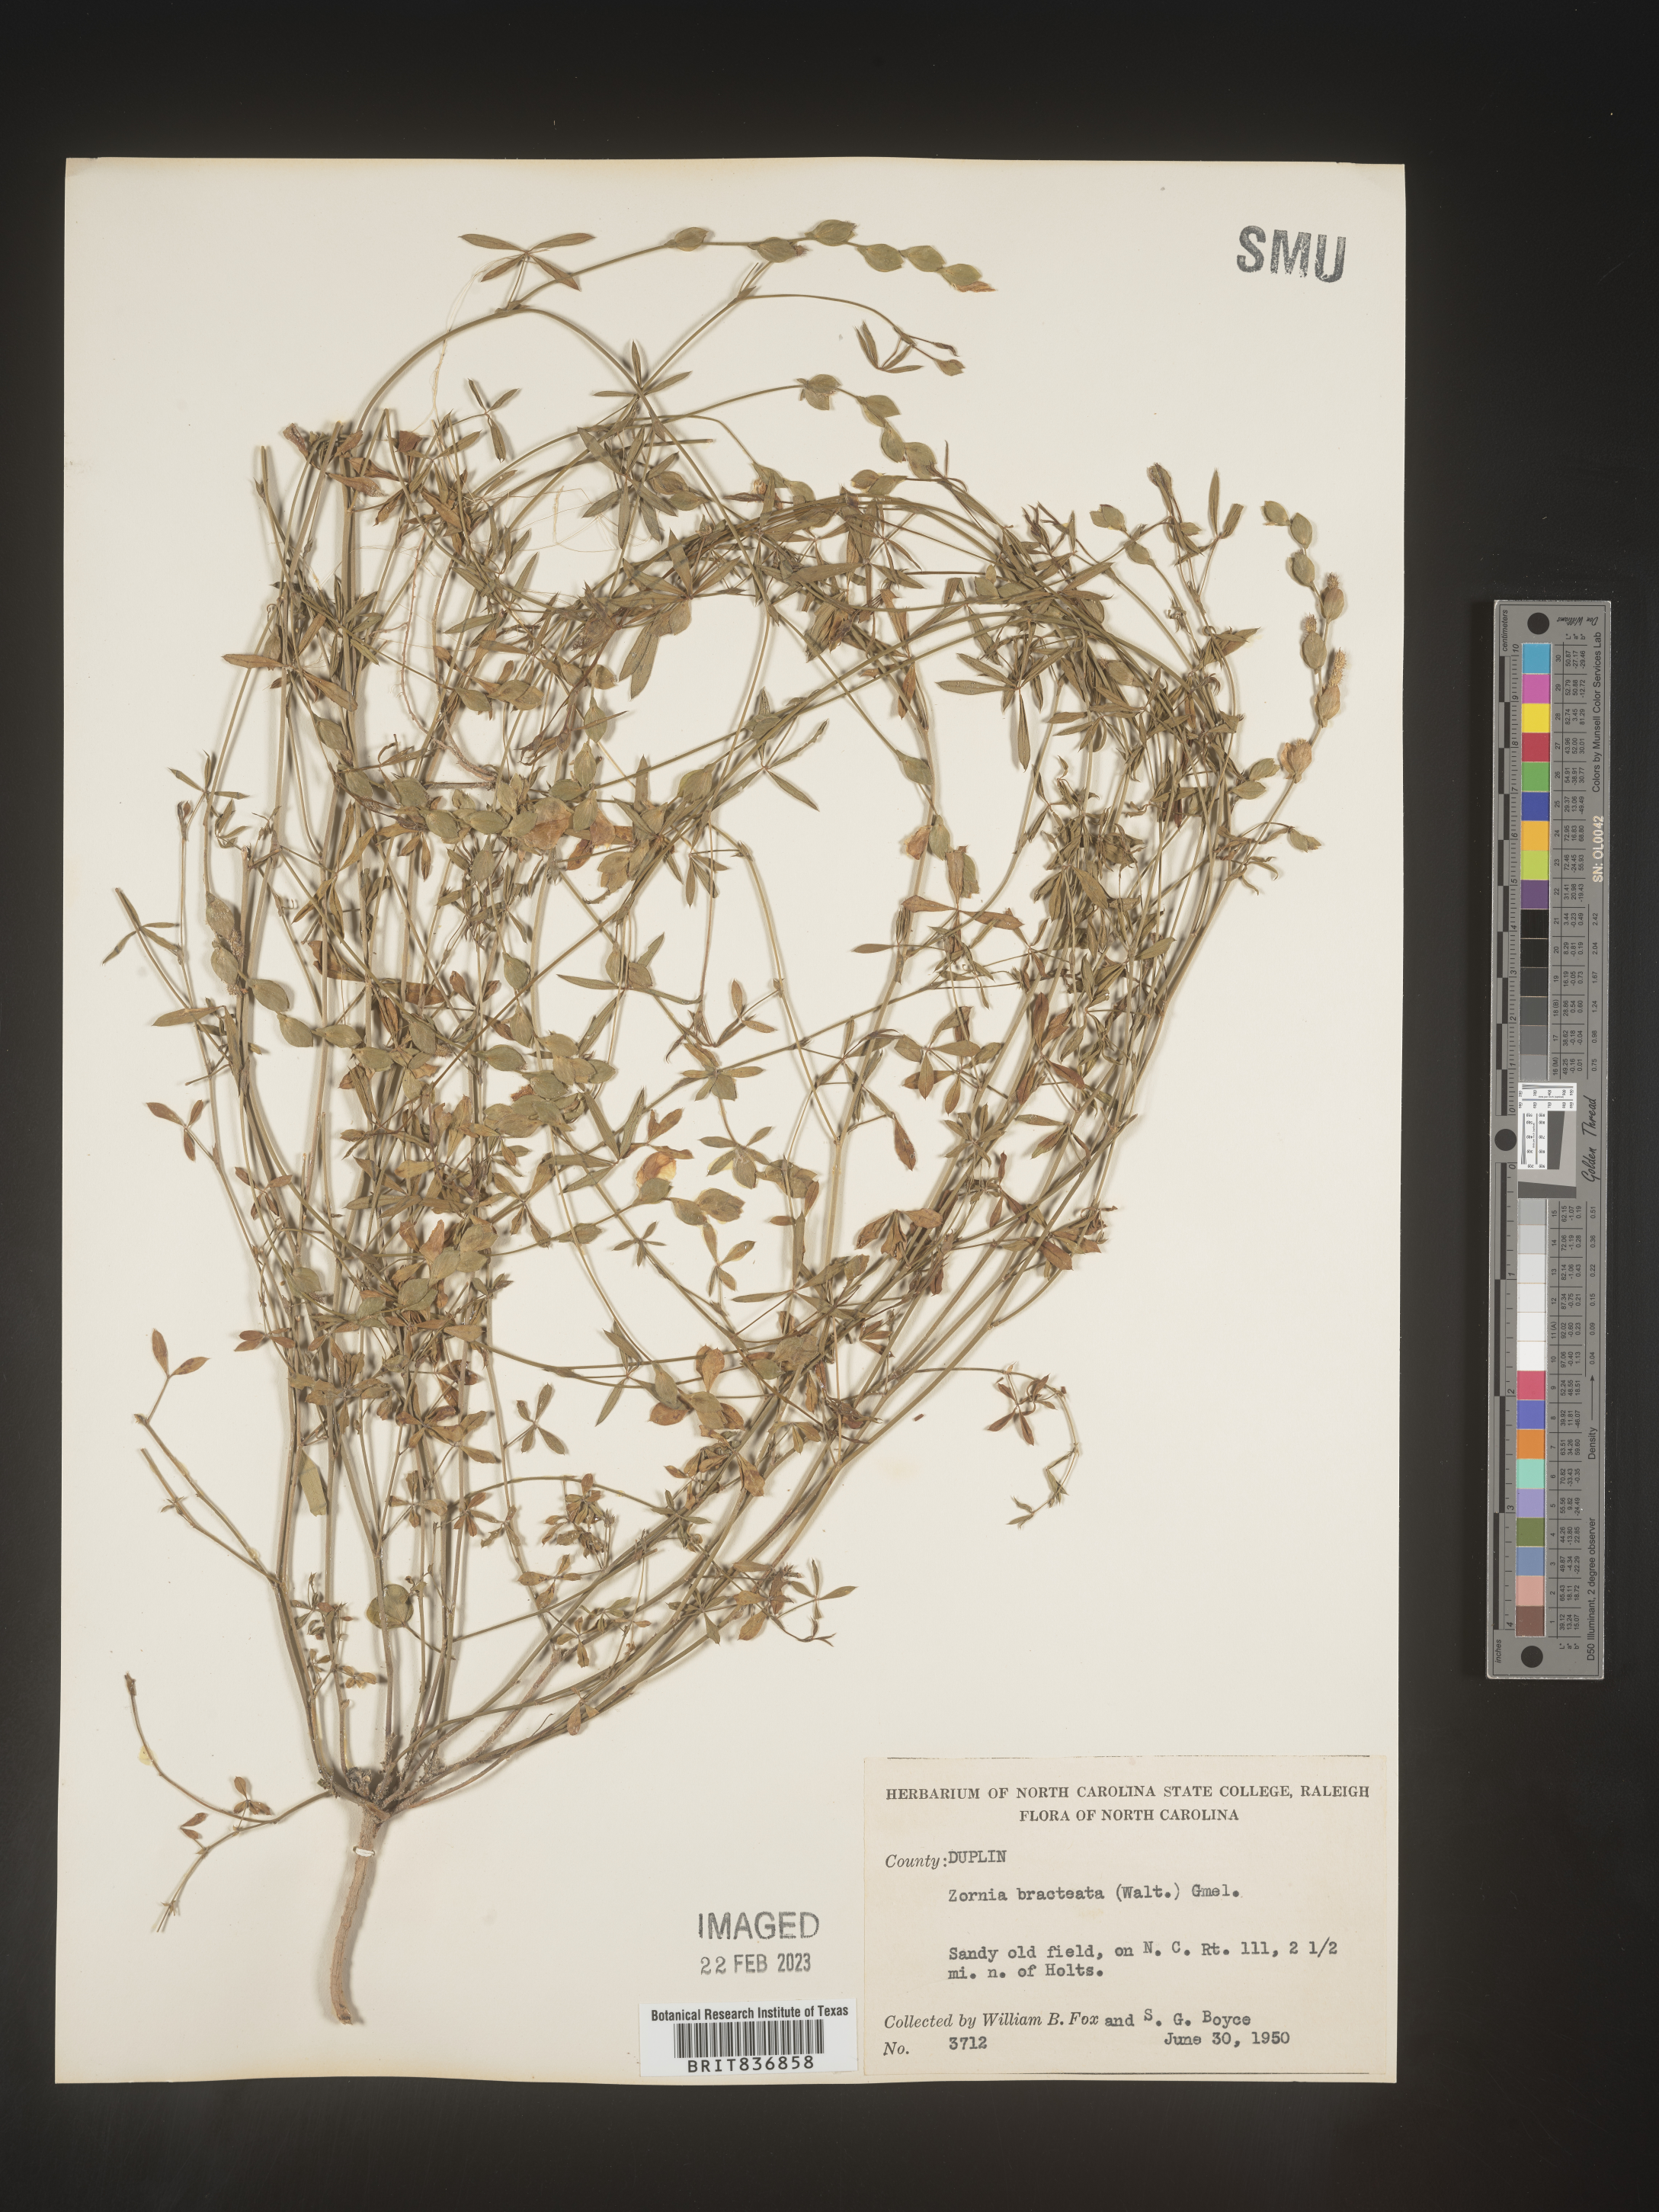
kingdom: Plantae
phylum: Tracheophyta
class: Magnoliopsida
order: Fabales
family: Fabaceae
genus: Zornia
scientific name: Zornia
